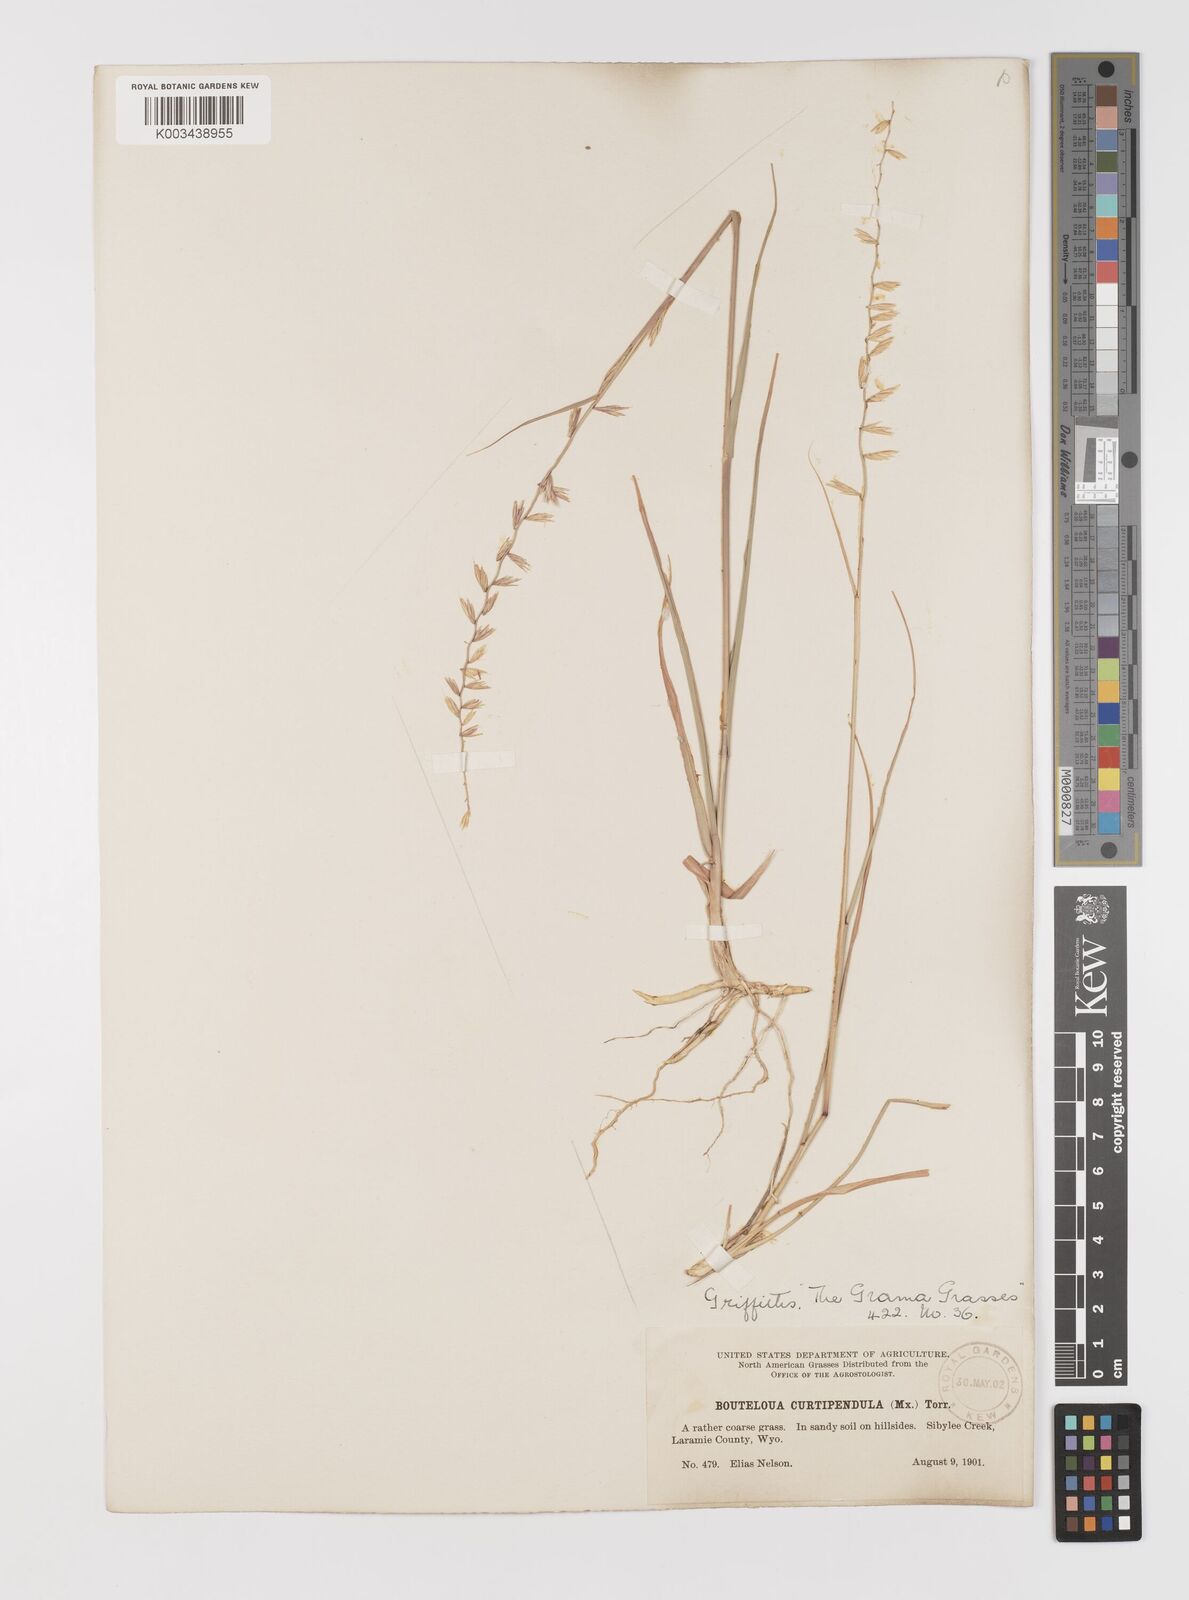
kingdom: Plantae
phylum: Tracheophyta
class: Liliopsida
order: Poales
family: Poaceae
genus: Bouteloua
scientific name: Bouteloua curtipendula
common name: Side-oats grama
